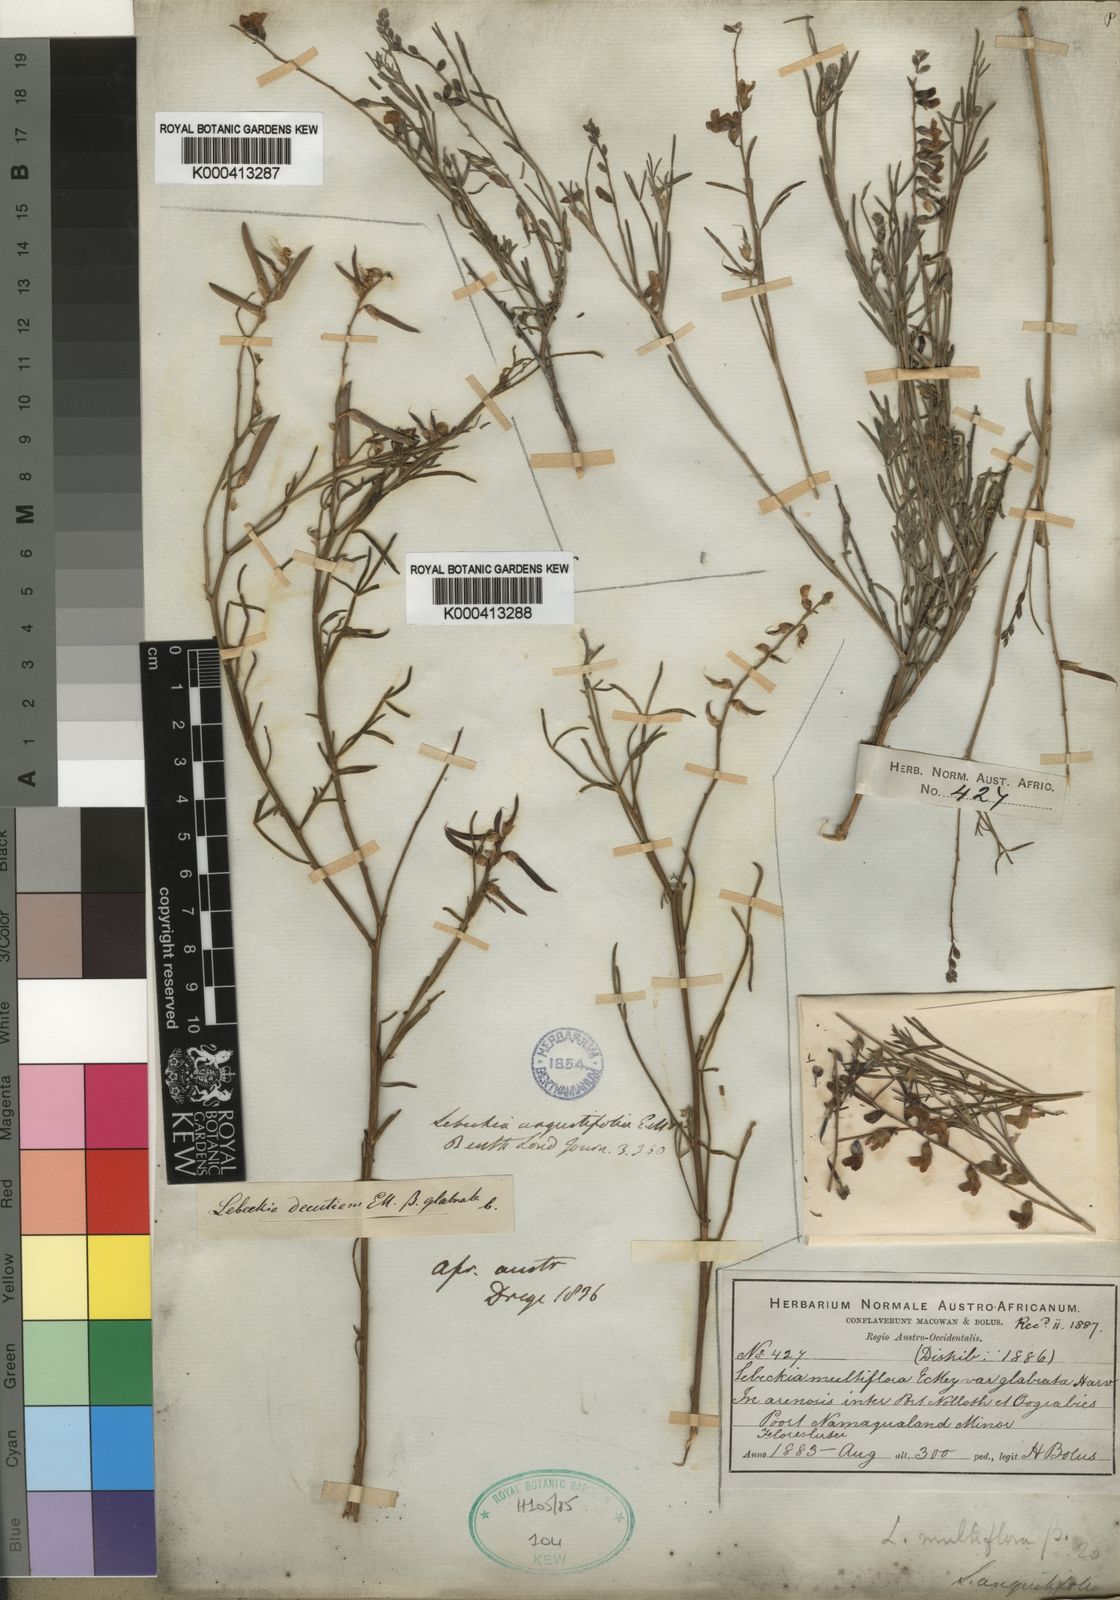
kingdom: Plantae
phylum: Tracheophyta
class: Magnoliopsida
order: Fabales
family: Fabaceae
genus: Calobota
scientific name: Calobota angustifolia
